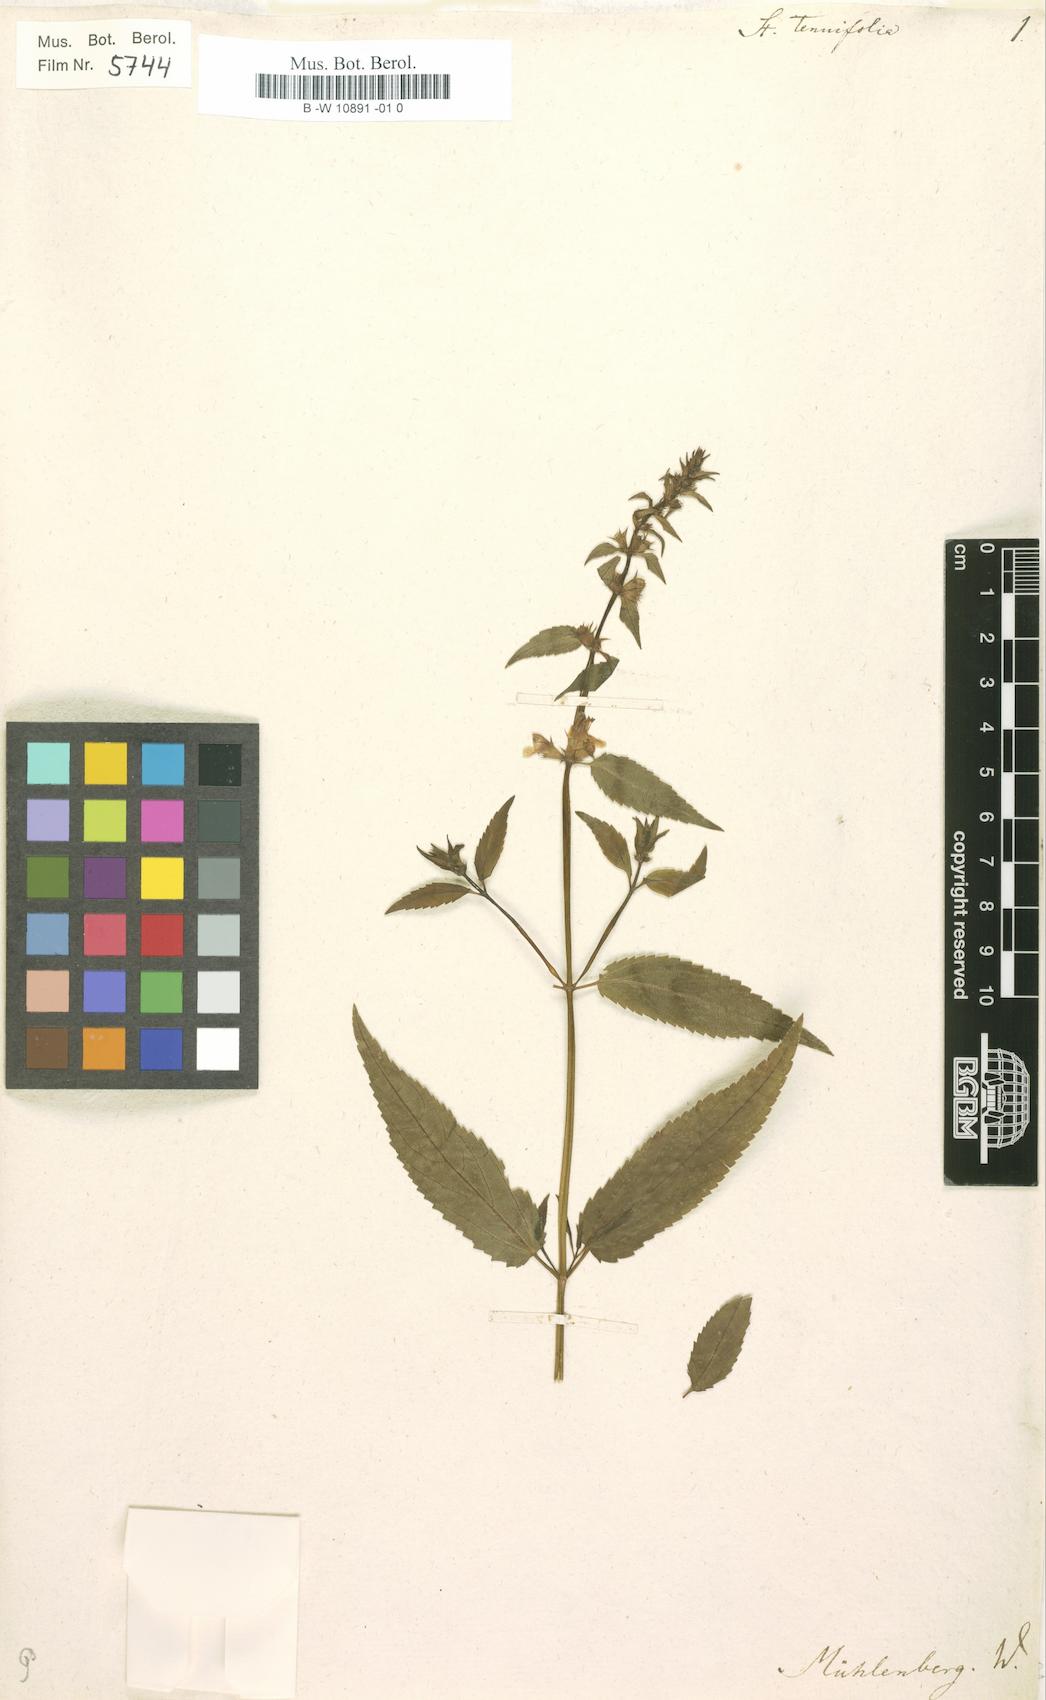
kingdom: Plantae
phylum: Tracheophyta
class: Magnoliopsida
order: Lamiales
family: Lamiaceae
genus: Stachys
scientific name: Stachys tenuifolia
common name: Smooth hedge-nettle
